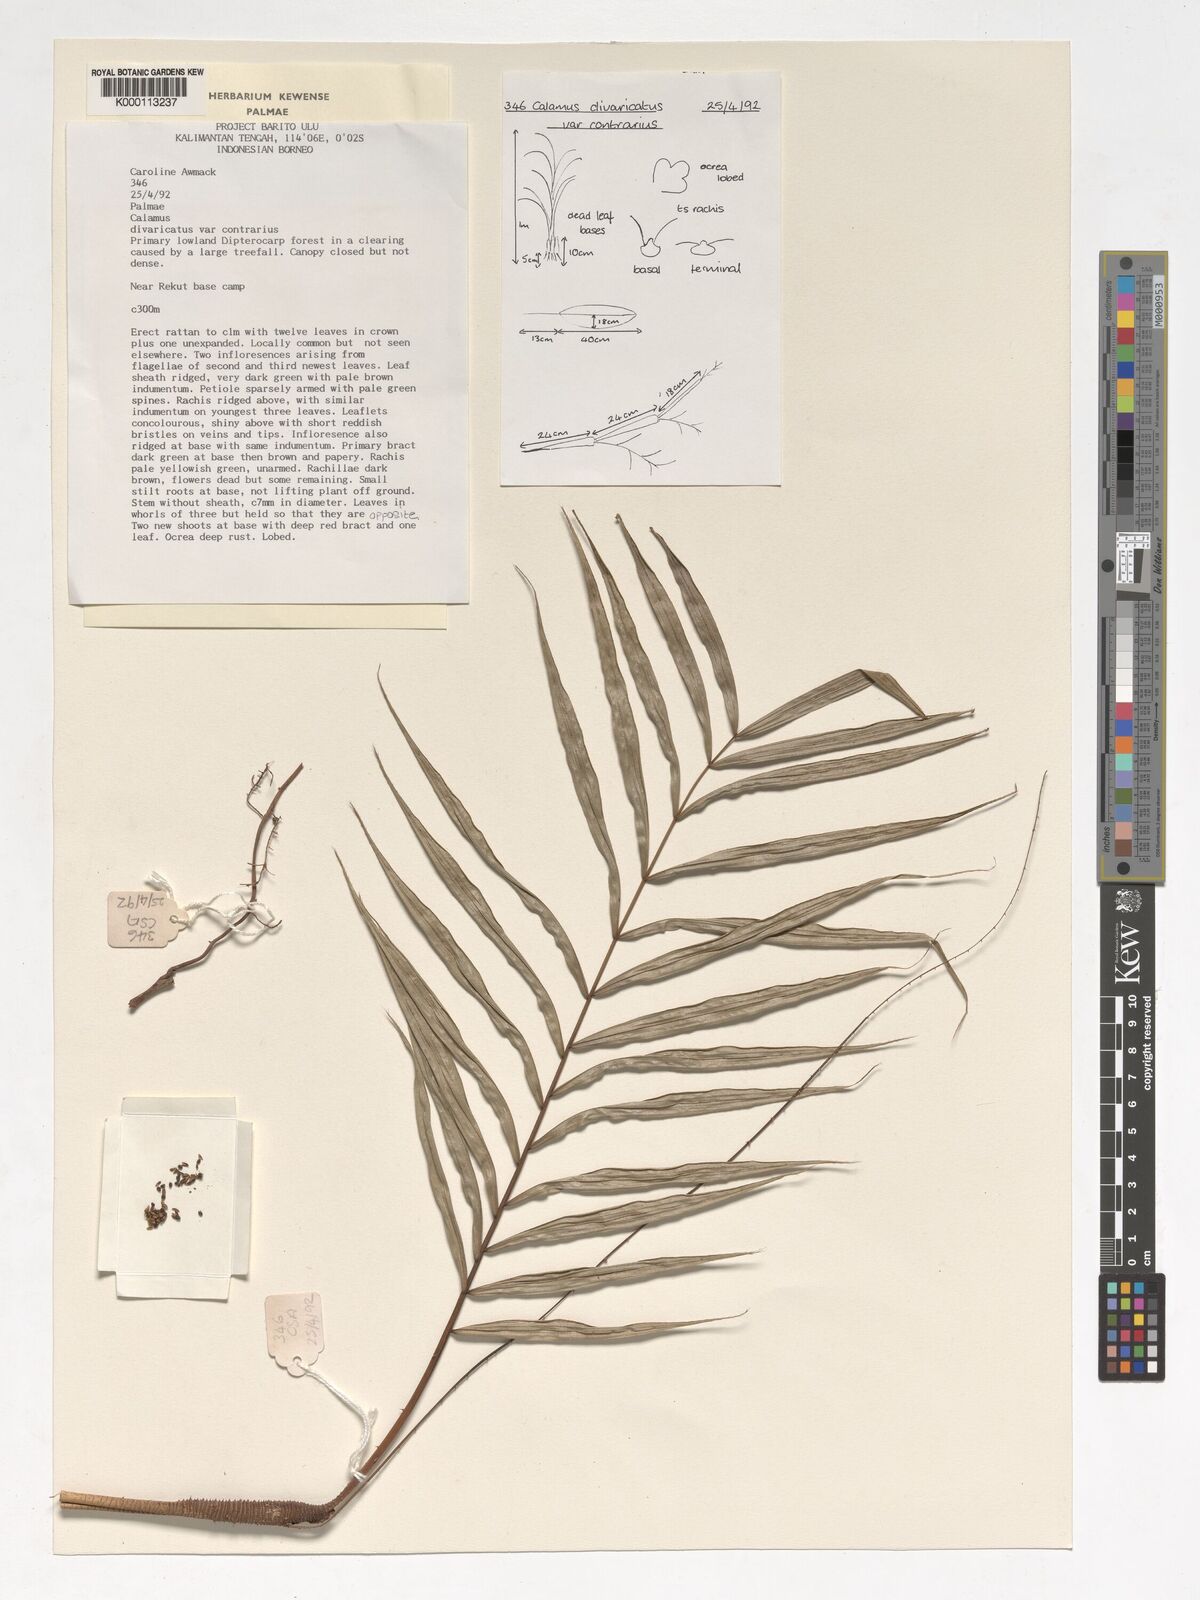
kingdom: Plantae
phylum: Tracheophyta
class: Liliopsida
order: Arecales
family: Arecaceae
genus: Calamus
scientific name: Calamus divaricatus
